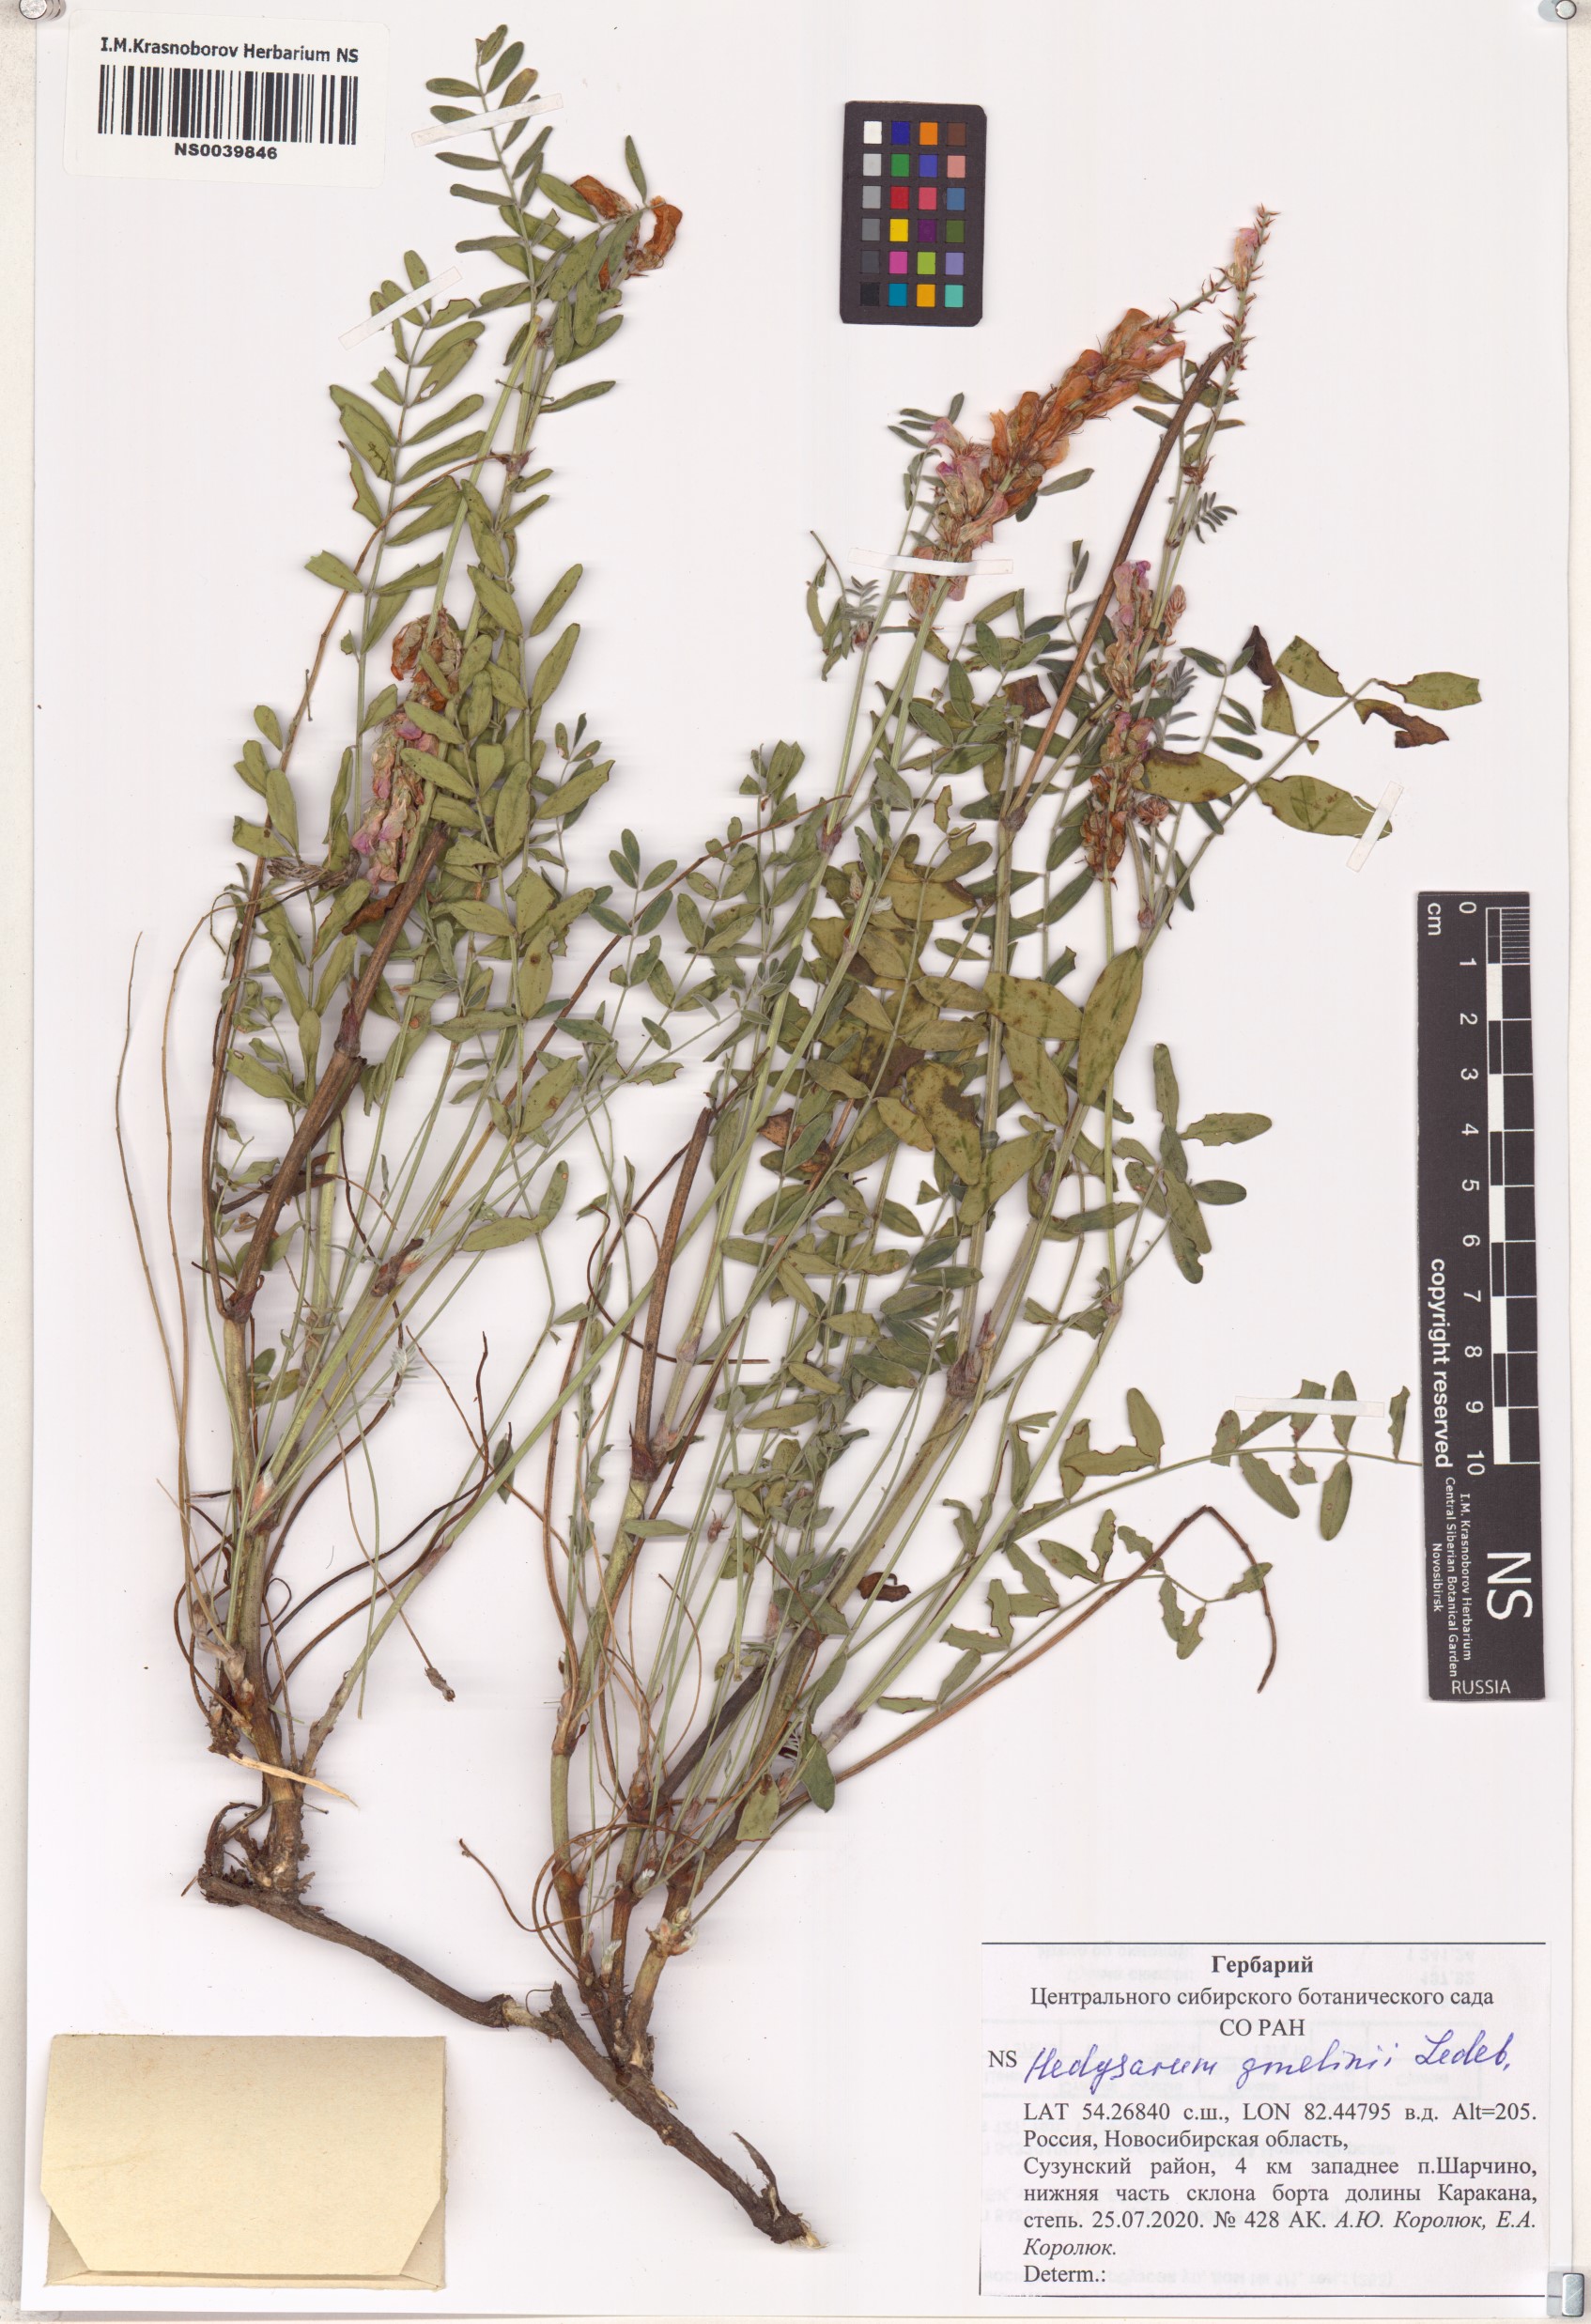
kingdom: Plantae
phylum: Tracheophyta
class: Magnoliopsida
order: Fabales
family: Fabaceae
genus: Hedysarum
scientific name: Hedysarum gmelinii
